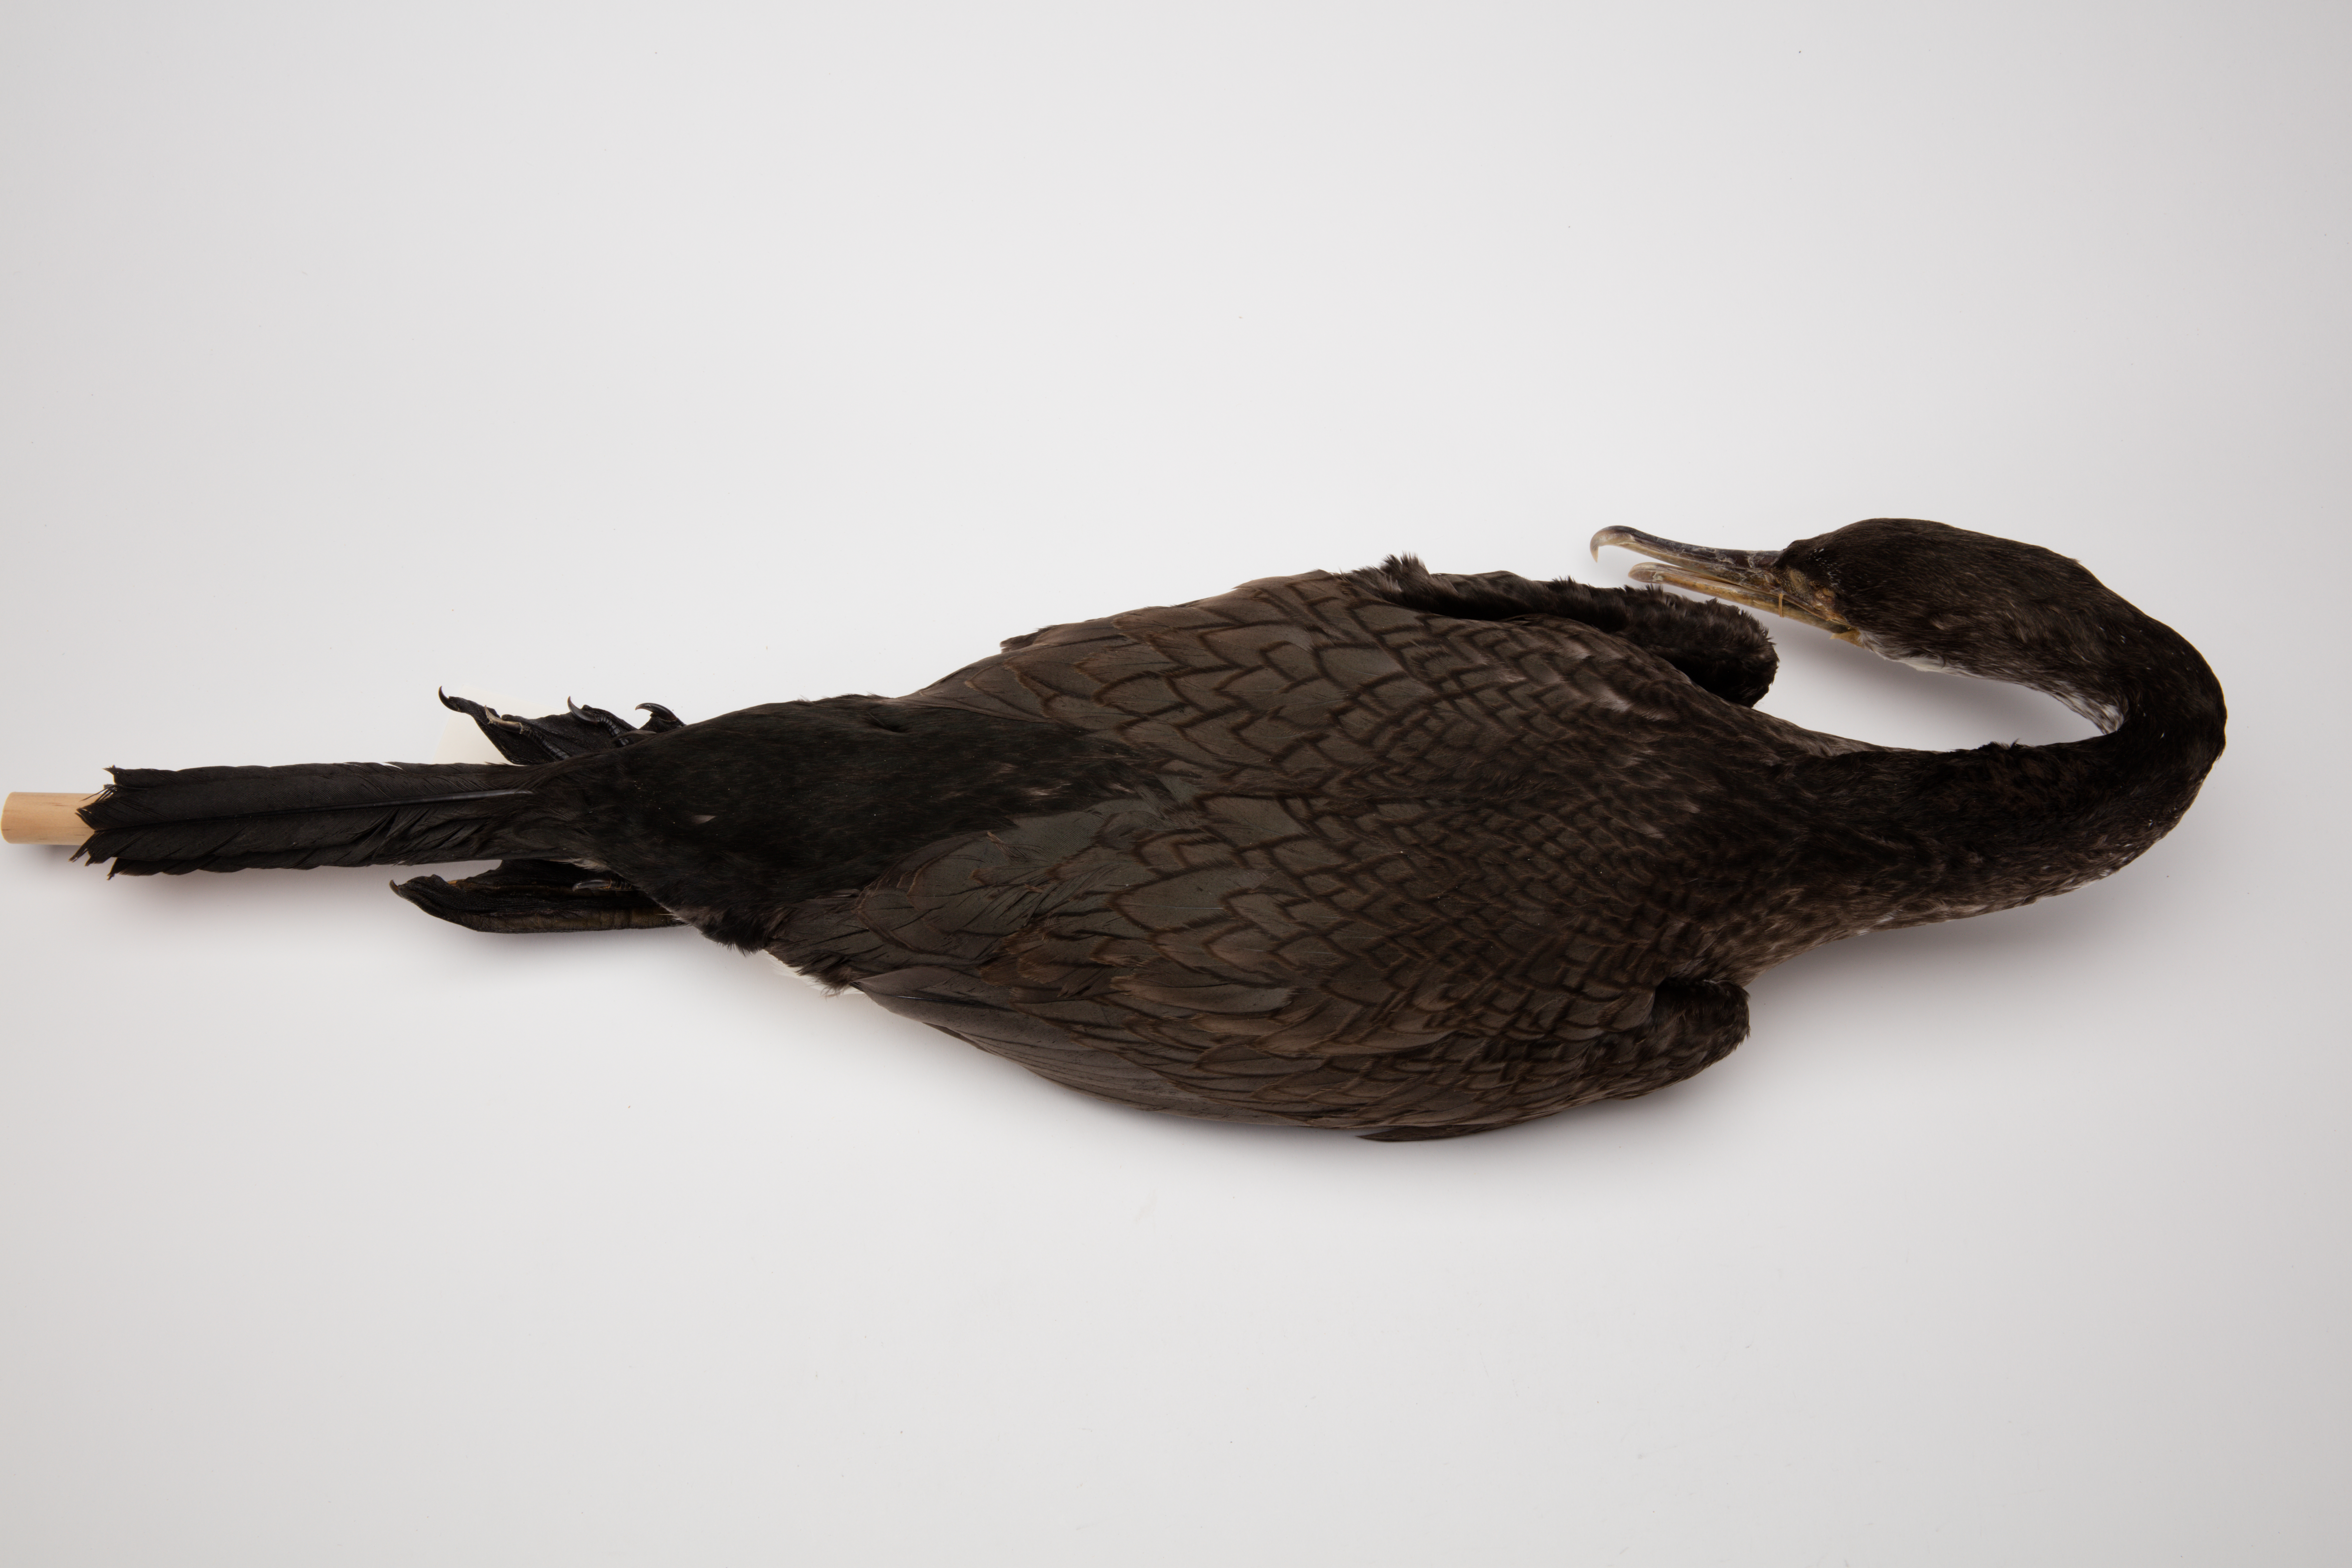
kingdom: Animalia
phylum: Chordata
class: Aves
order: Suliformes
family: Phalacrocoracidae
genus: Phalacrocorax
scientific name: Phalacrocorax varius
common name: Pied cormorant
